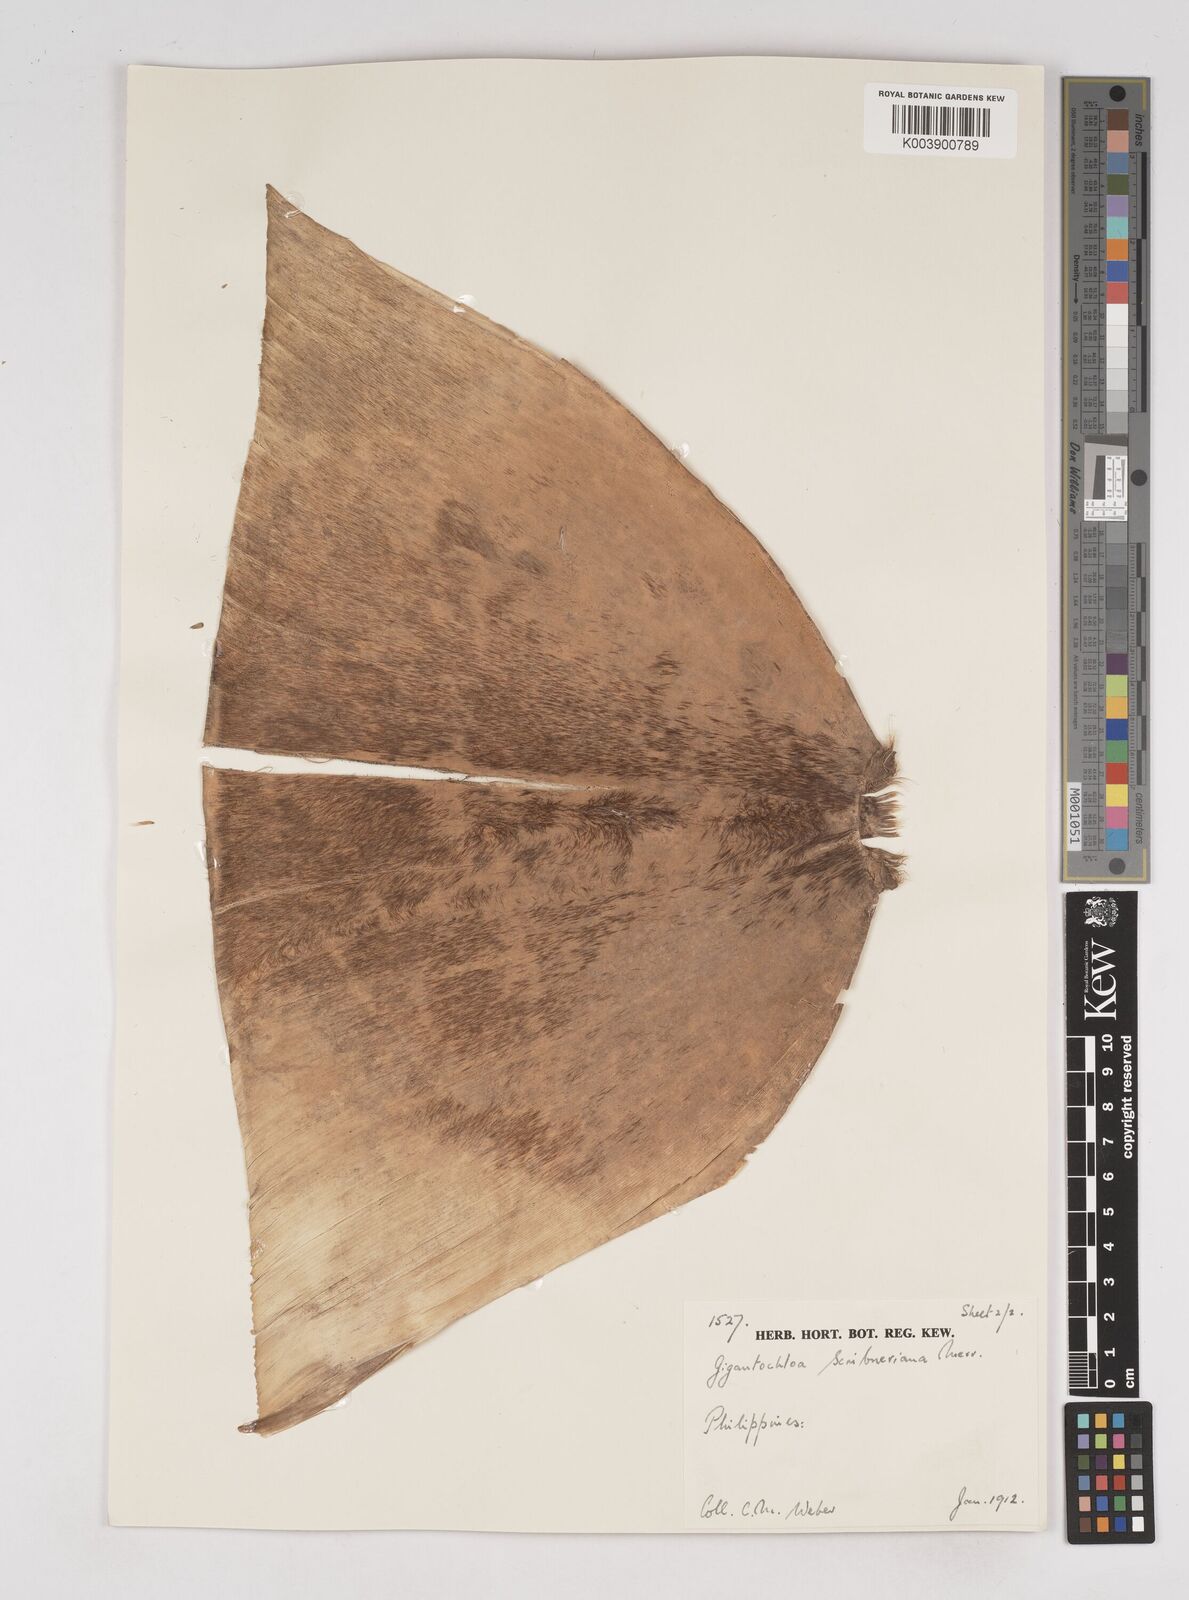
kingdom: Plantae
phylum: Tracheophyta
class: Liliopsida
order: Poales
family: Poaceae
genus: Gigantochloa
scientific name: Gigantochloa
